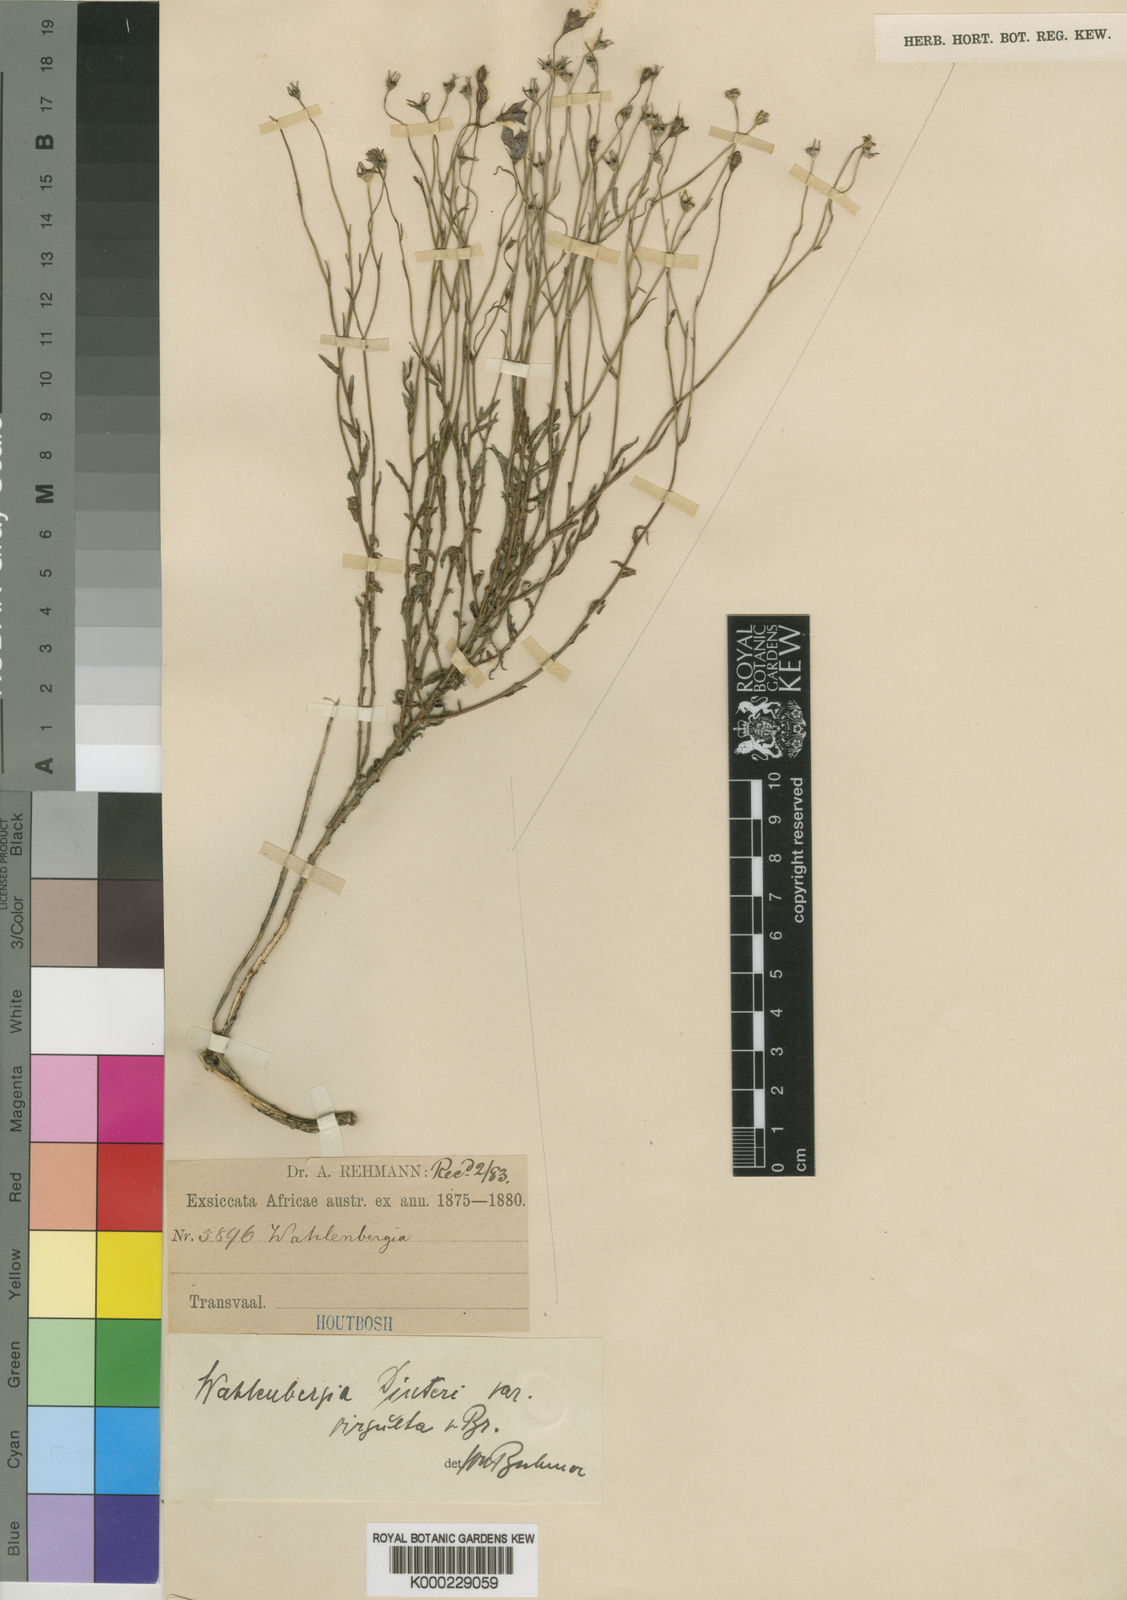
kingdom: Plantae
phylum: Tracheophyta
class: Magnoliopsida
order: Asterales
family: Campanulaceae
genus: Wahlenbergia
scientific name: Wahlenbergia undulata
